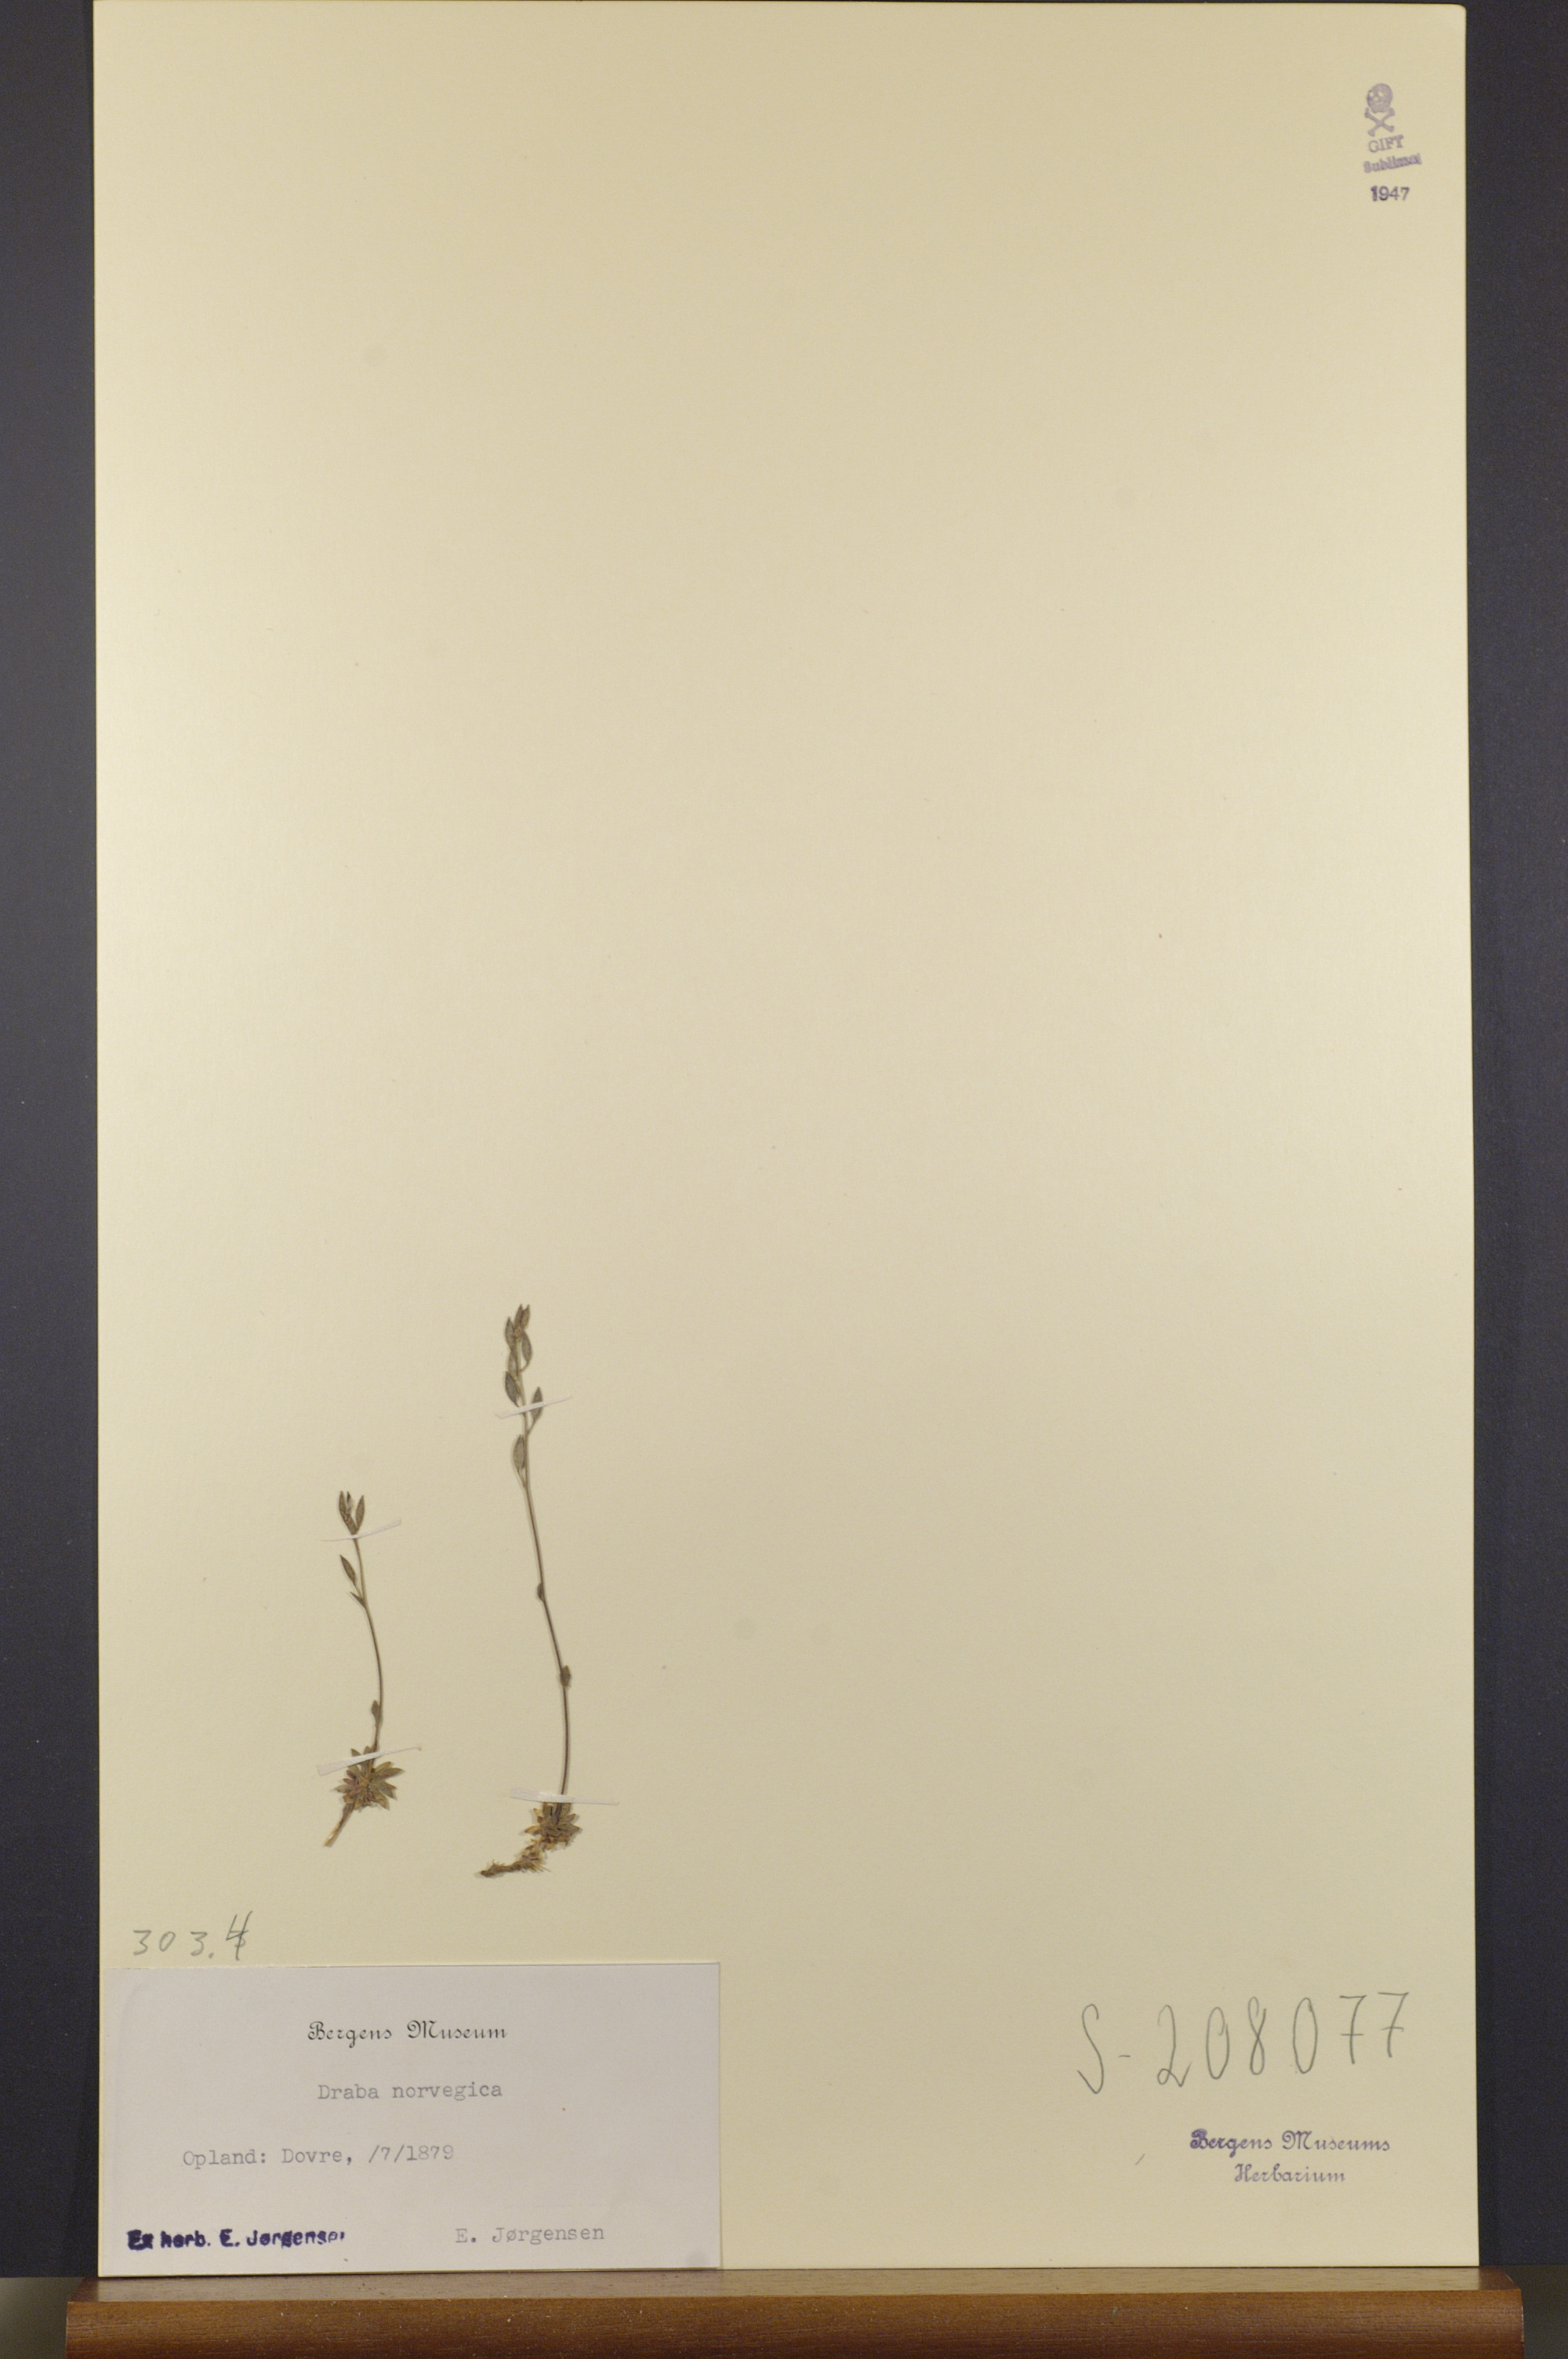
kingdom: Plantae
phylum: Tracheophyta
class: Magnoliopsida
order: Brassicales
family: Brassicaceae
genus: Draba
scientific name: Draba norvegica
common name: Rock whitlowgrass
